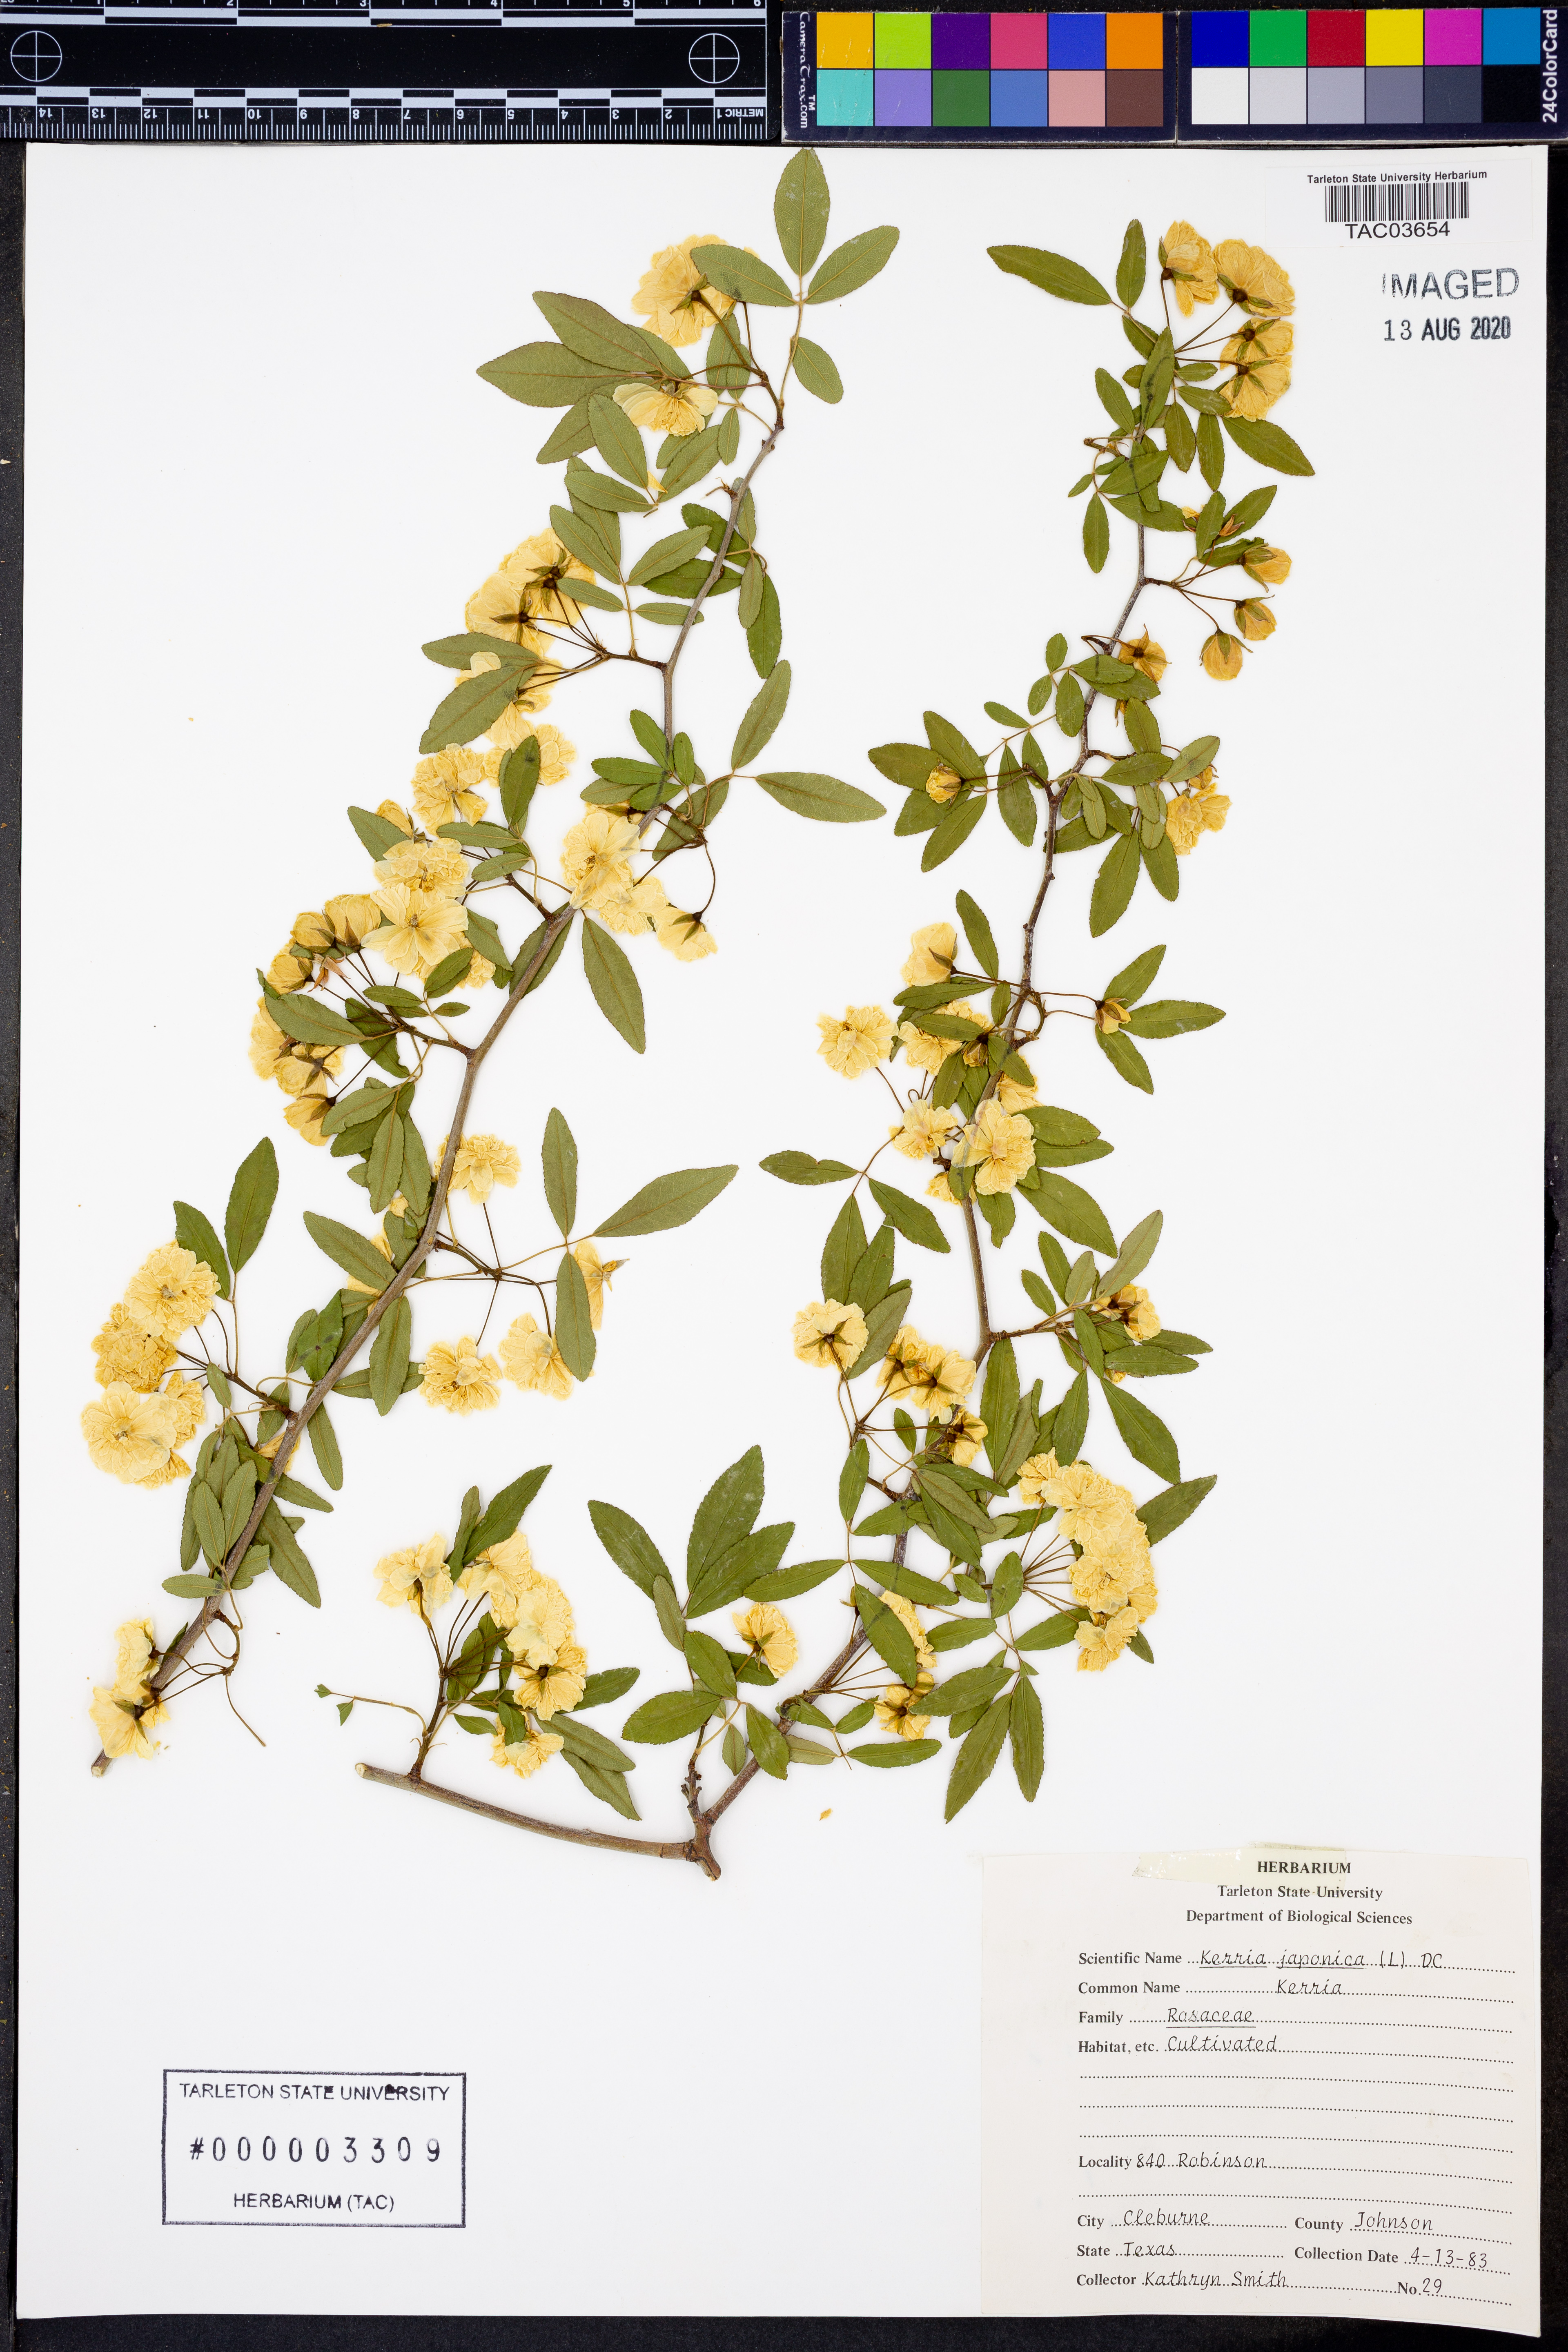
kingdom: Plantae
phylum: Tracheophyta
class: Magnoliopsida
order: Rosales
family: Rosaceae
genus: Kerria
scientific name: Kerria japonica
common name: Japanese kerria
